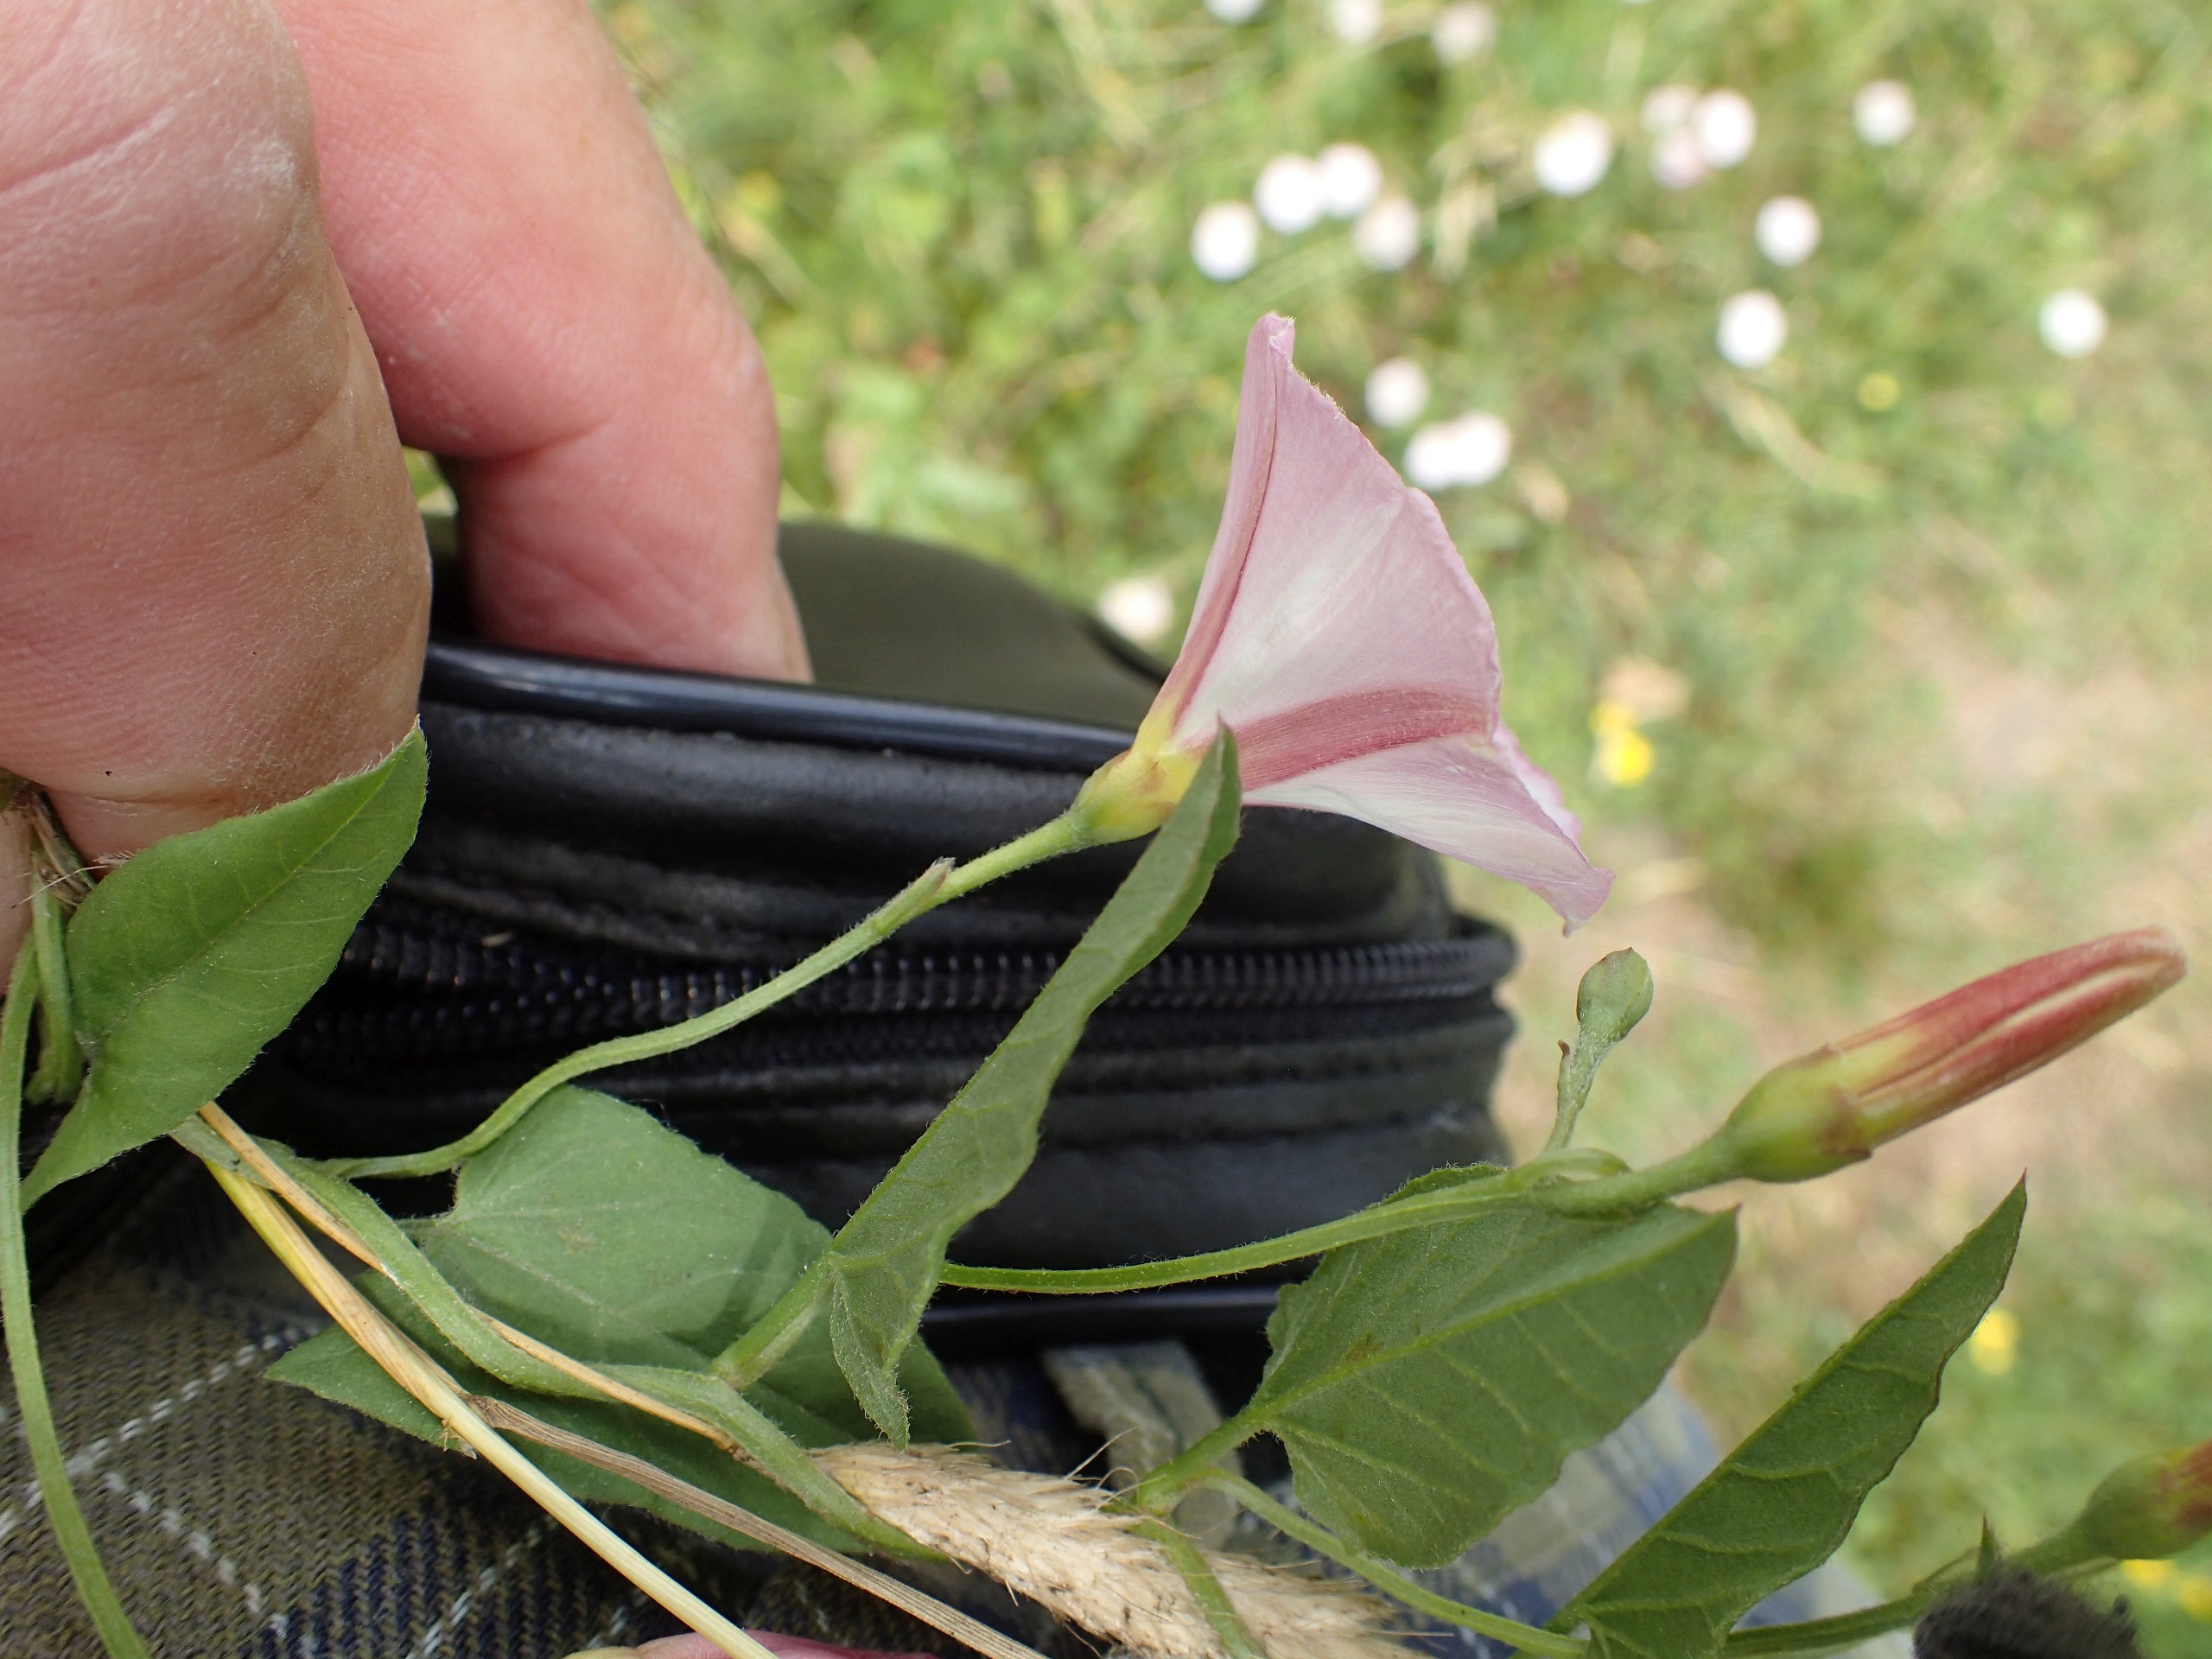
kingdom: Plantae
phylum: Tracheophyta
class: Magnoliopsida
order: Solanales
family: Convolvulaceae
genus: Convolvulus
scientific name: Convolvulus arvensis
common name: Ager-snerle
